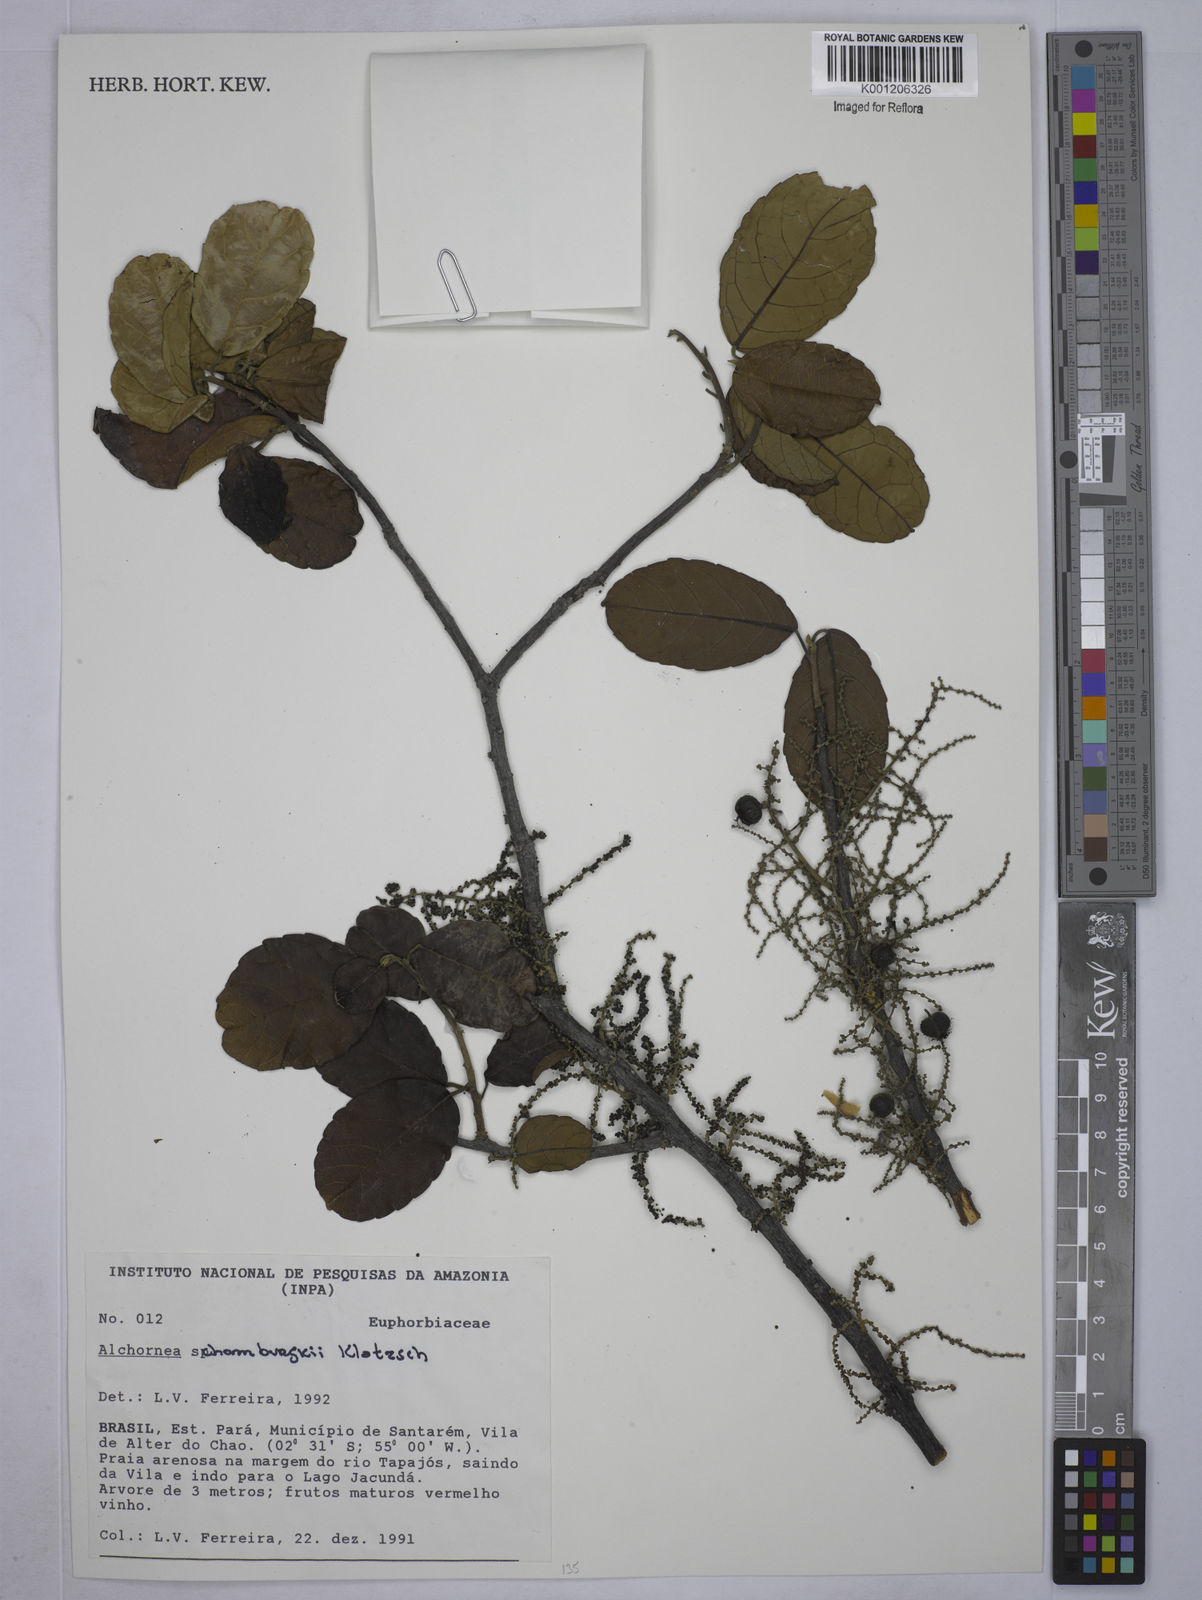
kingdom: Plantae
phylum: Tracheophyta
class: Magnoliopsida
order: Malpighiales
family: Euphorbiaceae
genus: Alchornea
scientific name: Alchornea discolor
